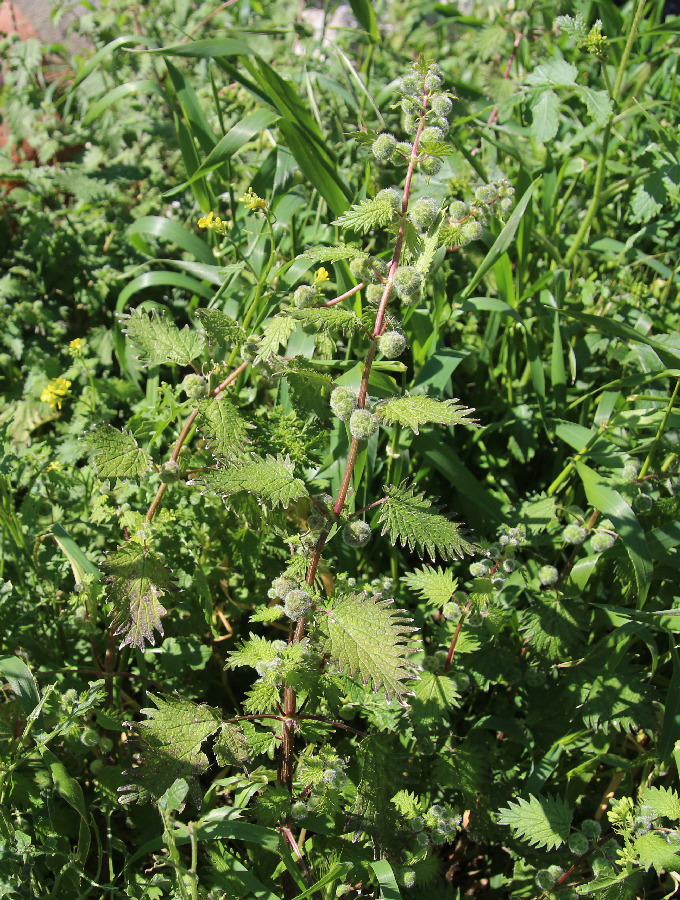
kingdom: Plantae
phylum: Tracheophyta
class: Magnoliopsida
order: Rosales
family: Urticaceae
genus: Urtica
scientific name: Urtica pilulifera
